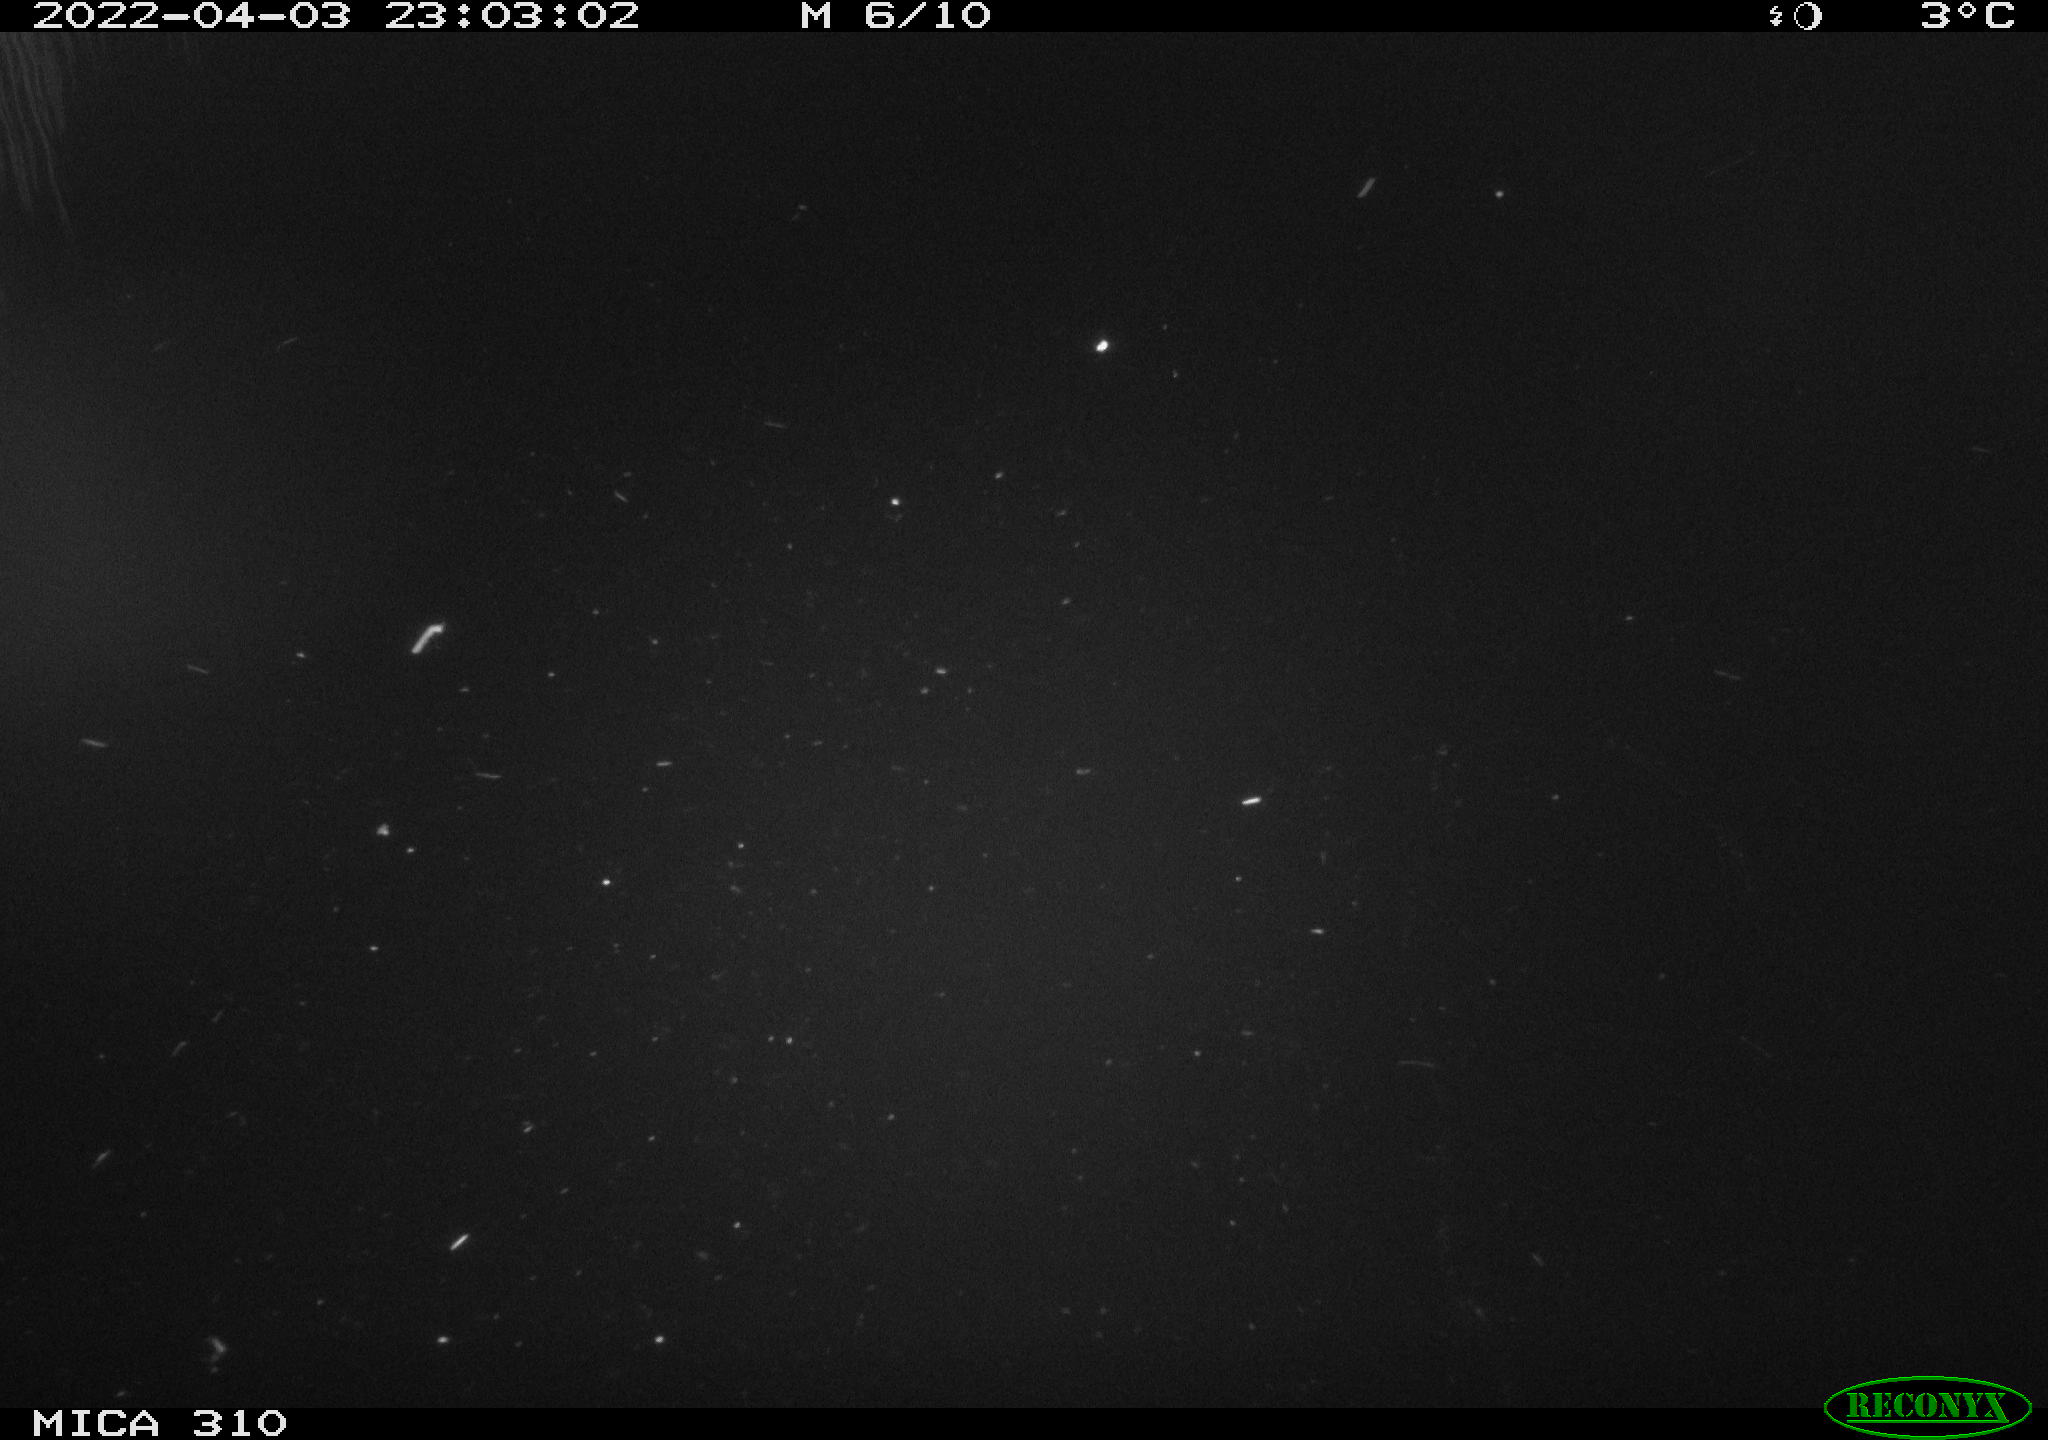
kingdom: Animalia
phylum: Chordata
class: Aves
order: Anseriformes
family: Anatidae
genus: Anas
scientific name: Anas platyrhynchos
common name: Mallard
